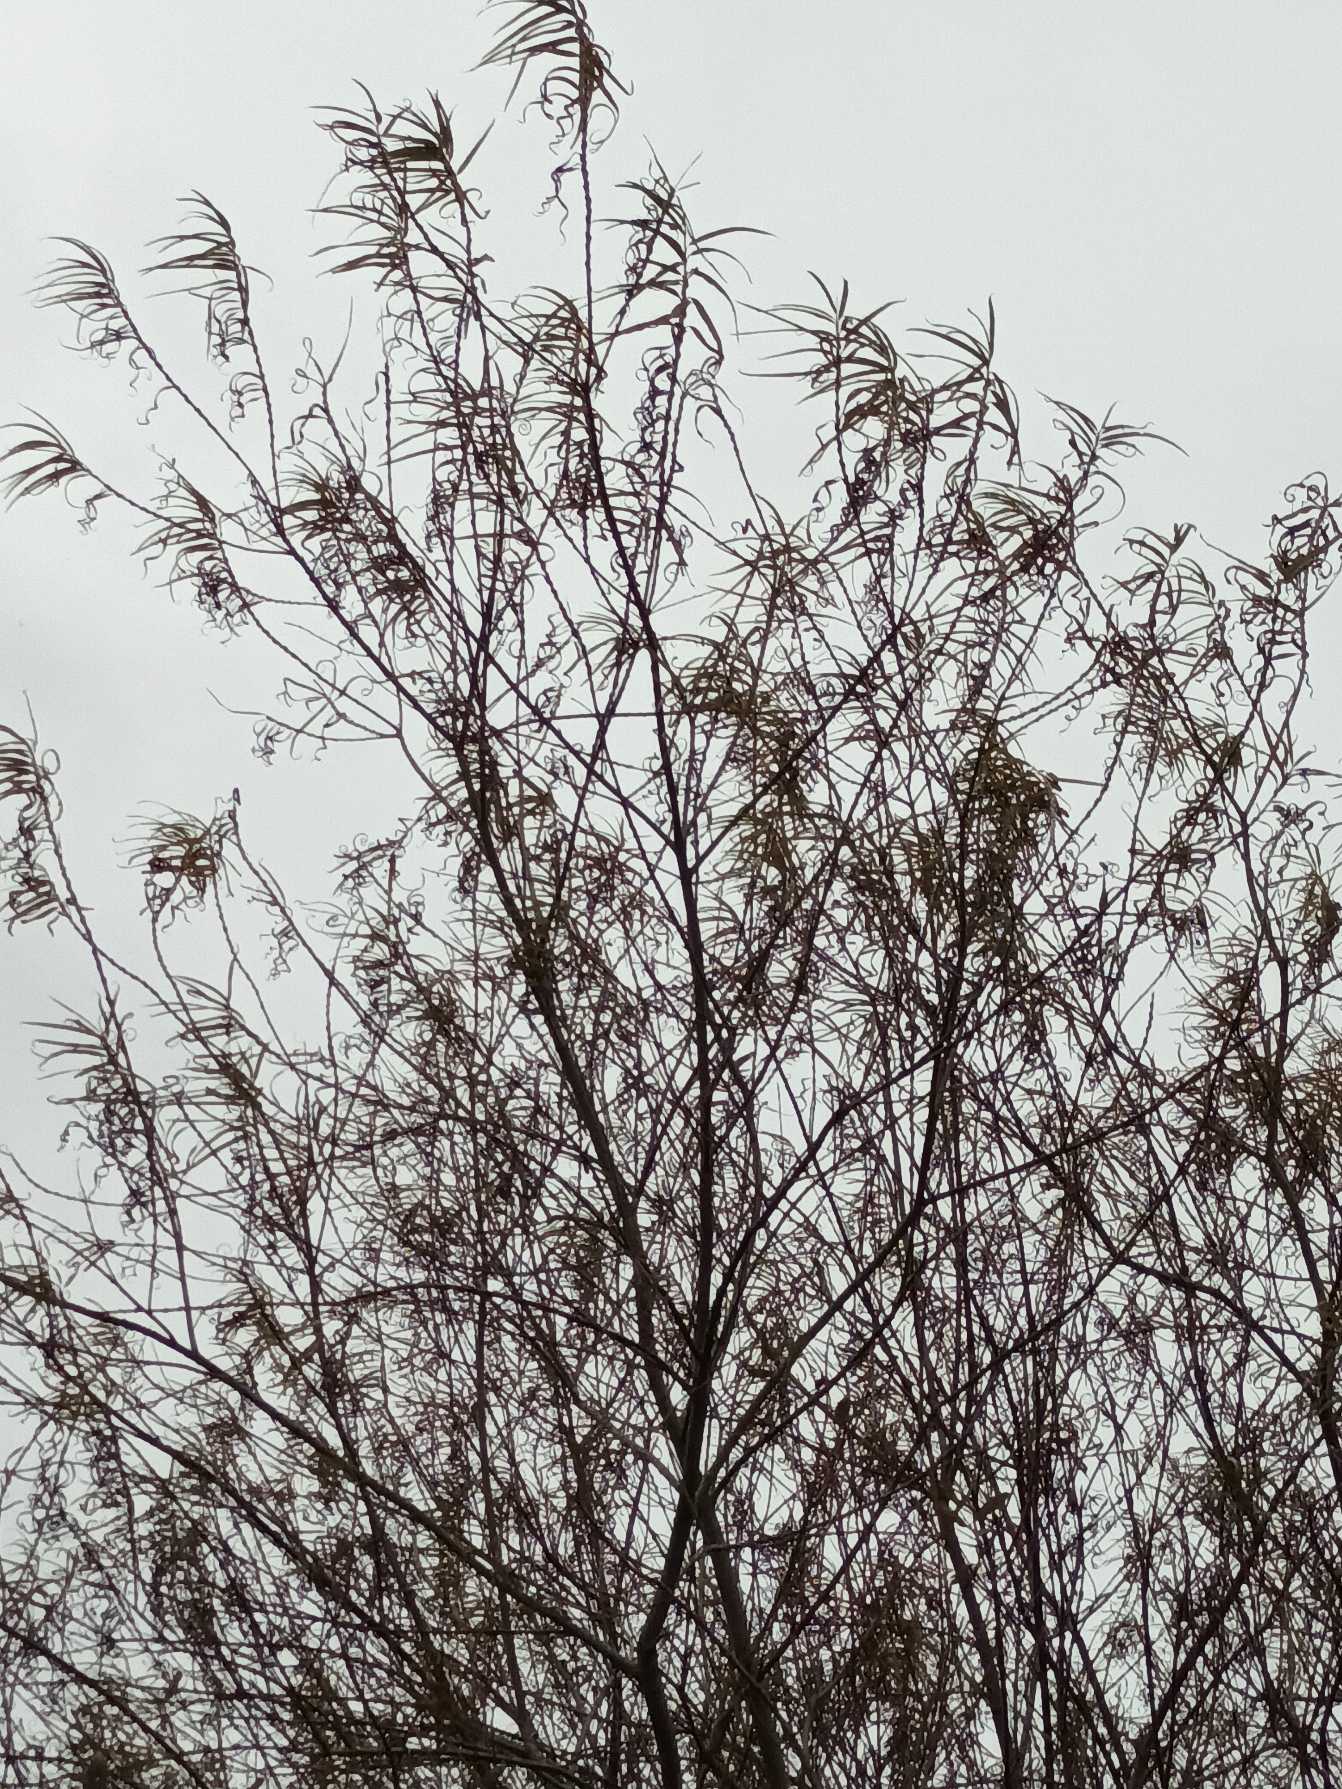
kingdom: Plantae
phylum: Tracheophyta
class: Magnoliopsida
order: Malpighiales
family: Salicaceae
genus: Salix
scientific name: Salix viminalis
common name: Bånd-pil
